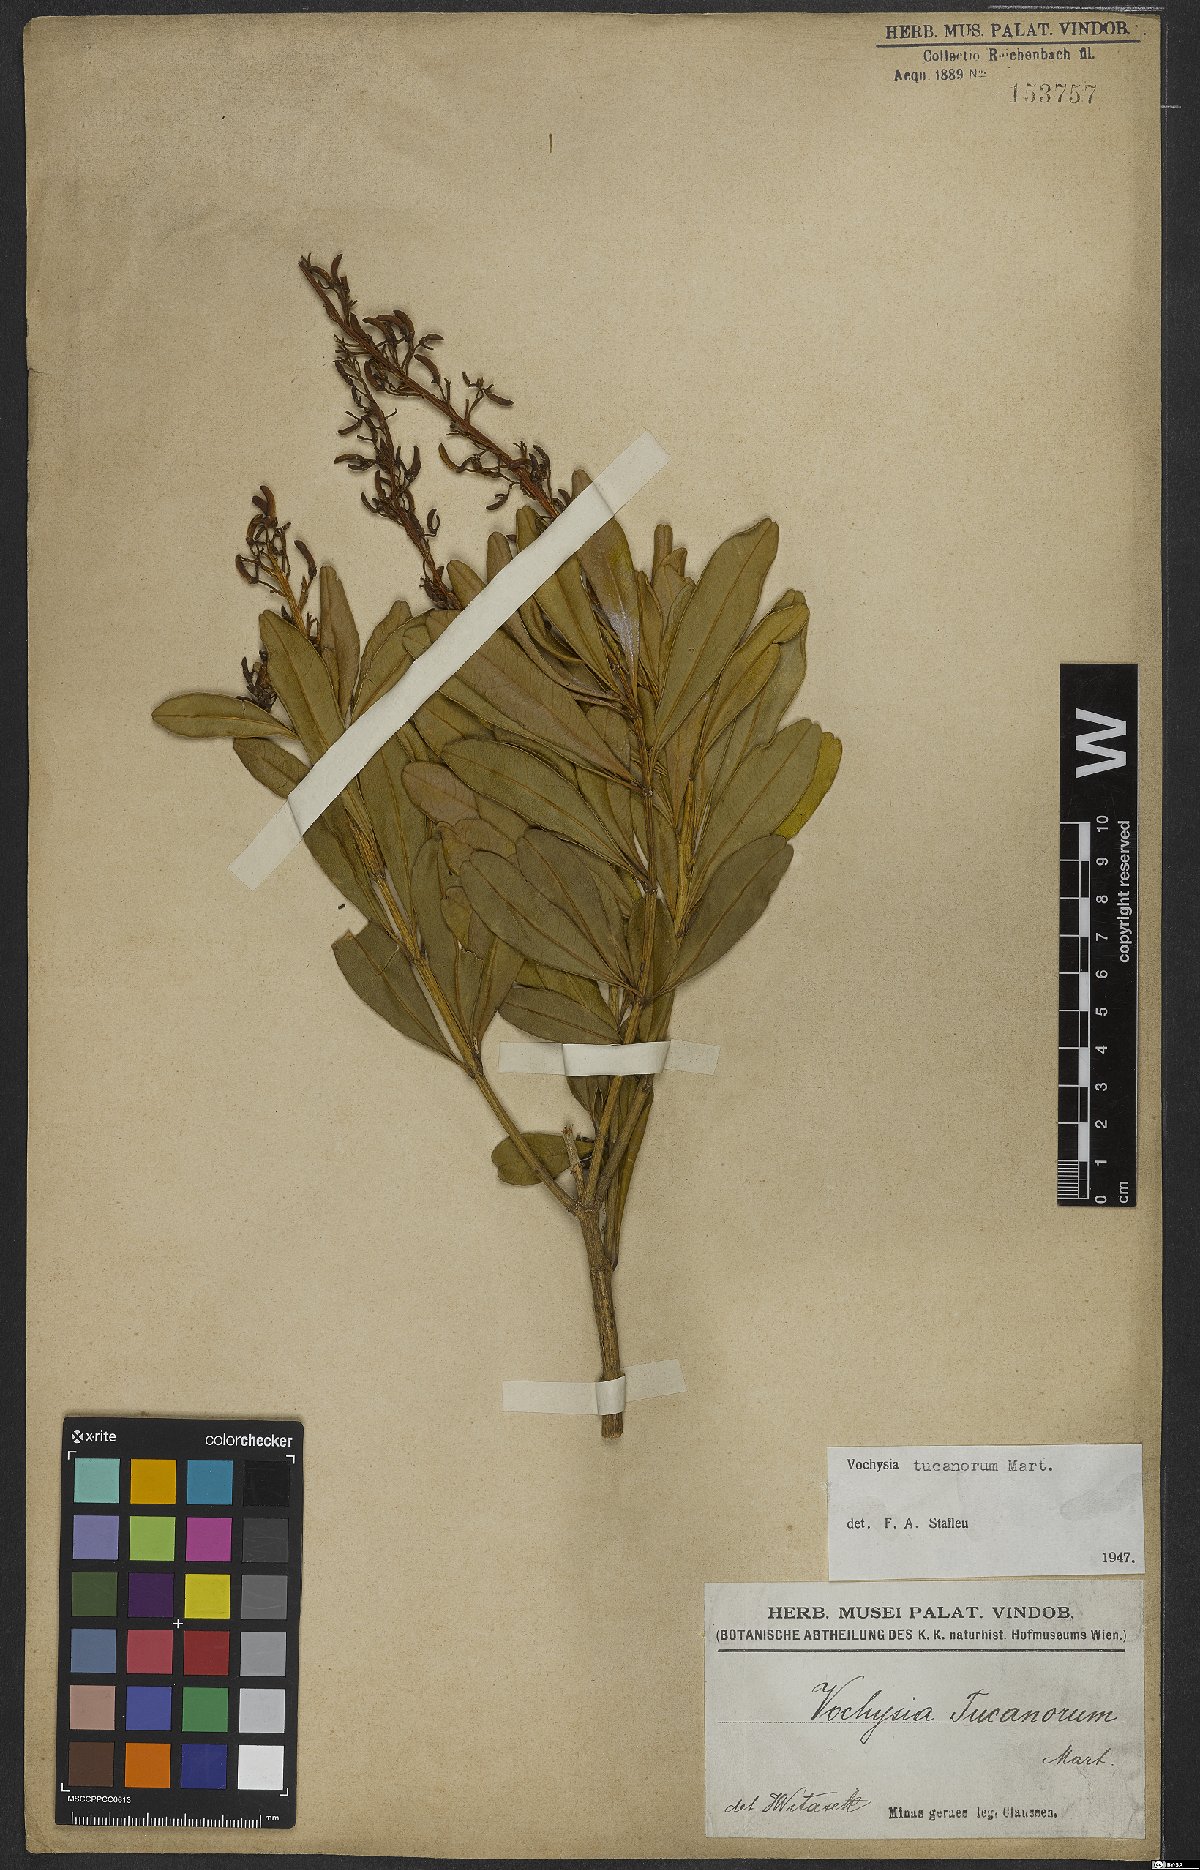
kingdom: Plantae
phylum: Tracheophyta
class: Magnoliopsida
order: Myrtales
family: Vochysiaceae
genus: Vochysia
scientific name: Vochysia tucanorum
